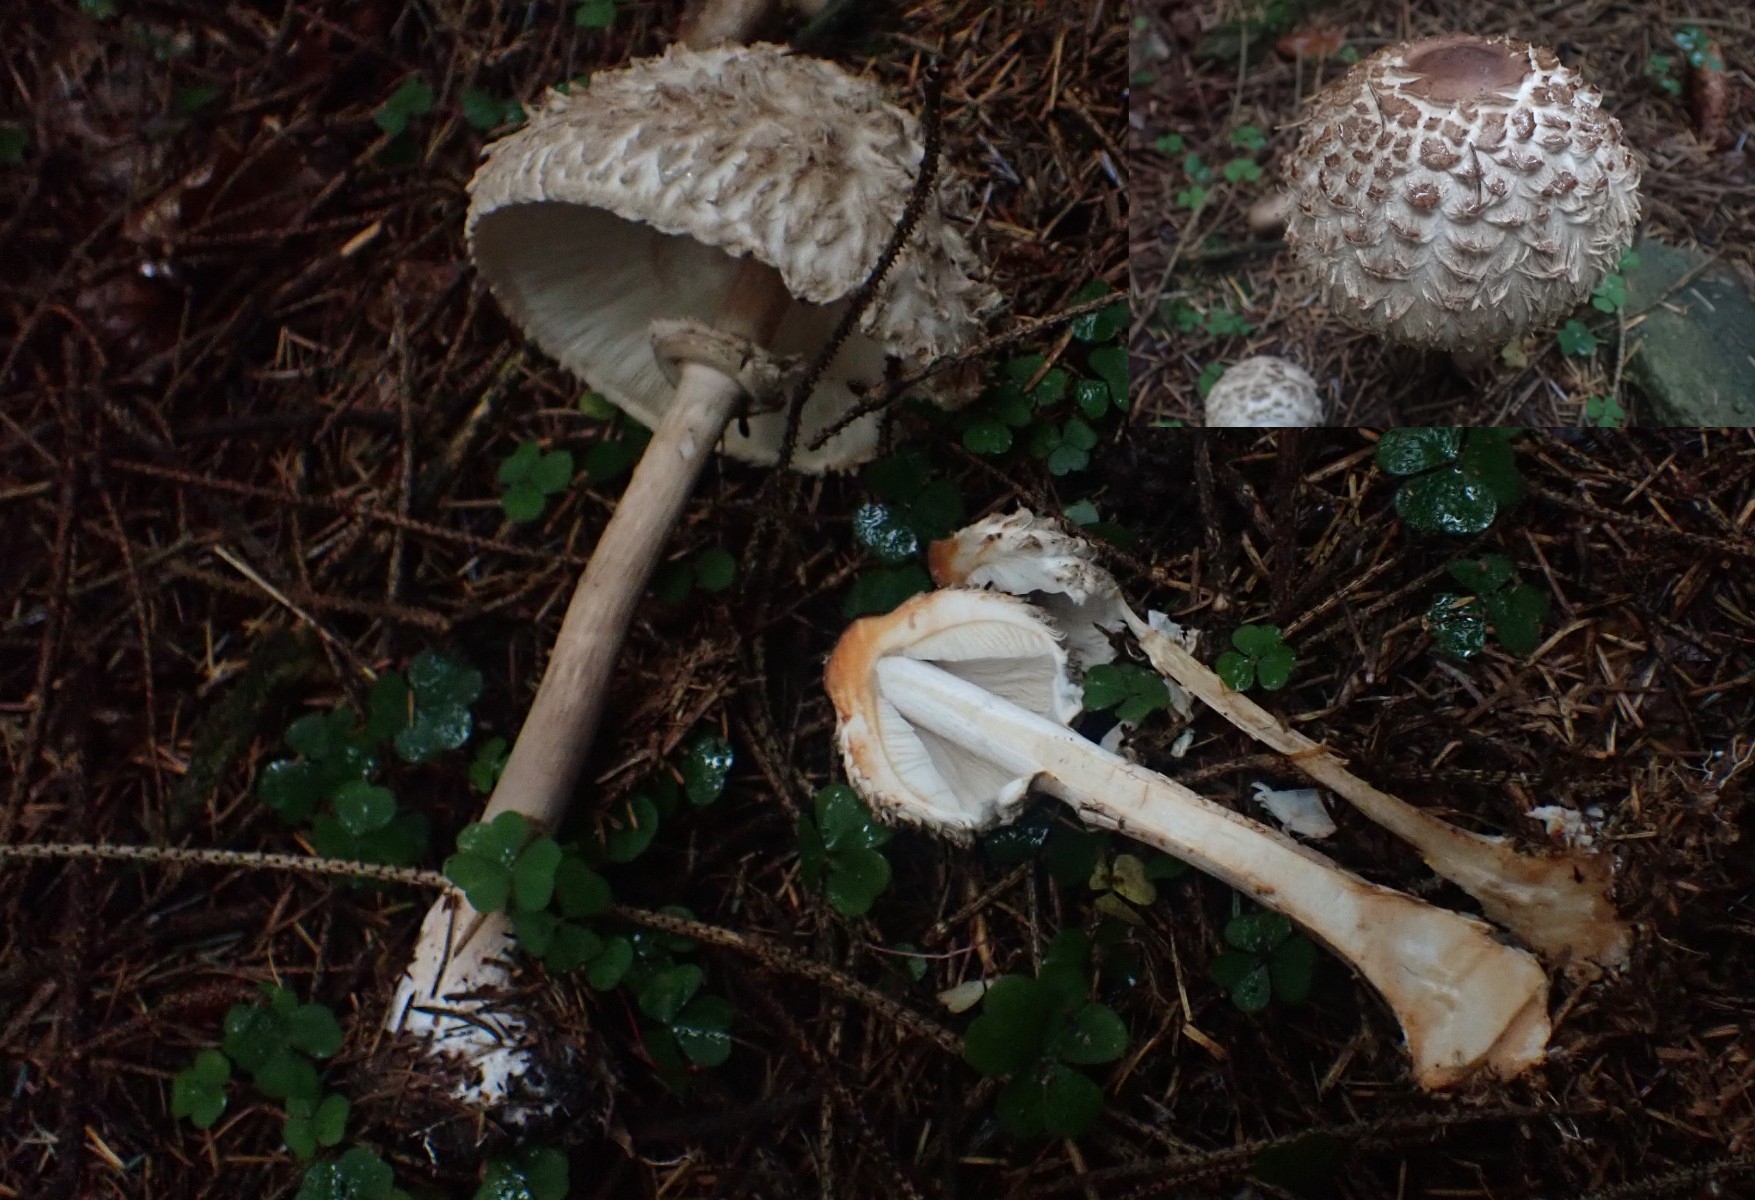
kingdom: Fungi
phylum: Basidiomycota
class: Agaricomycetes
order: Agaricales
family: Agaricaceae
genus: Chlorophyllum
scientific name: Chlorophyllum olivieri
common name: almindelig rabarberhat
